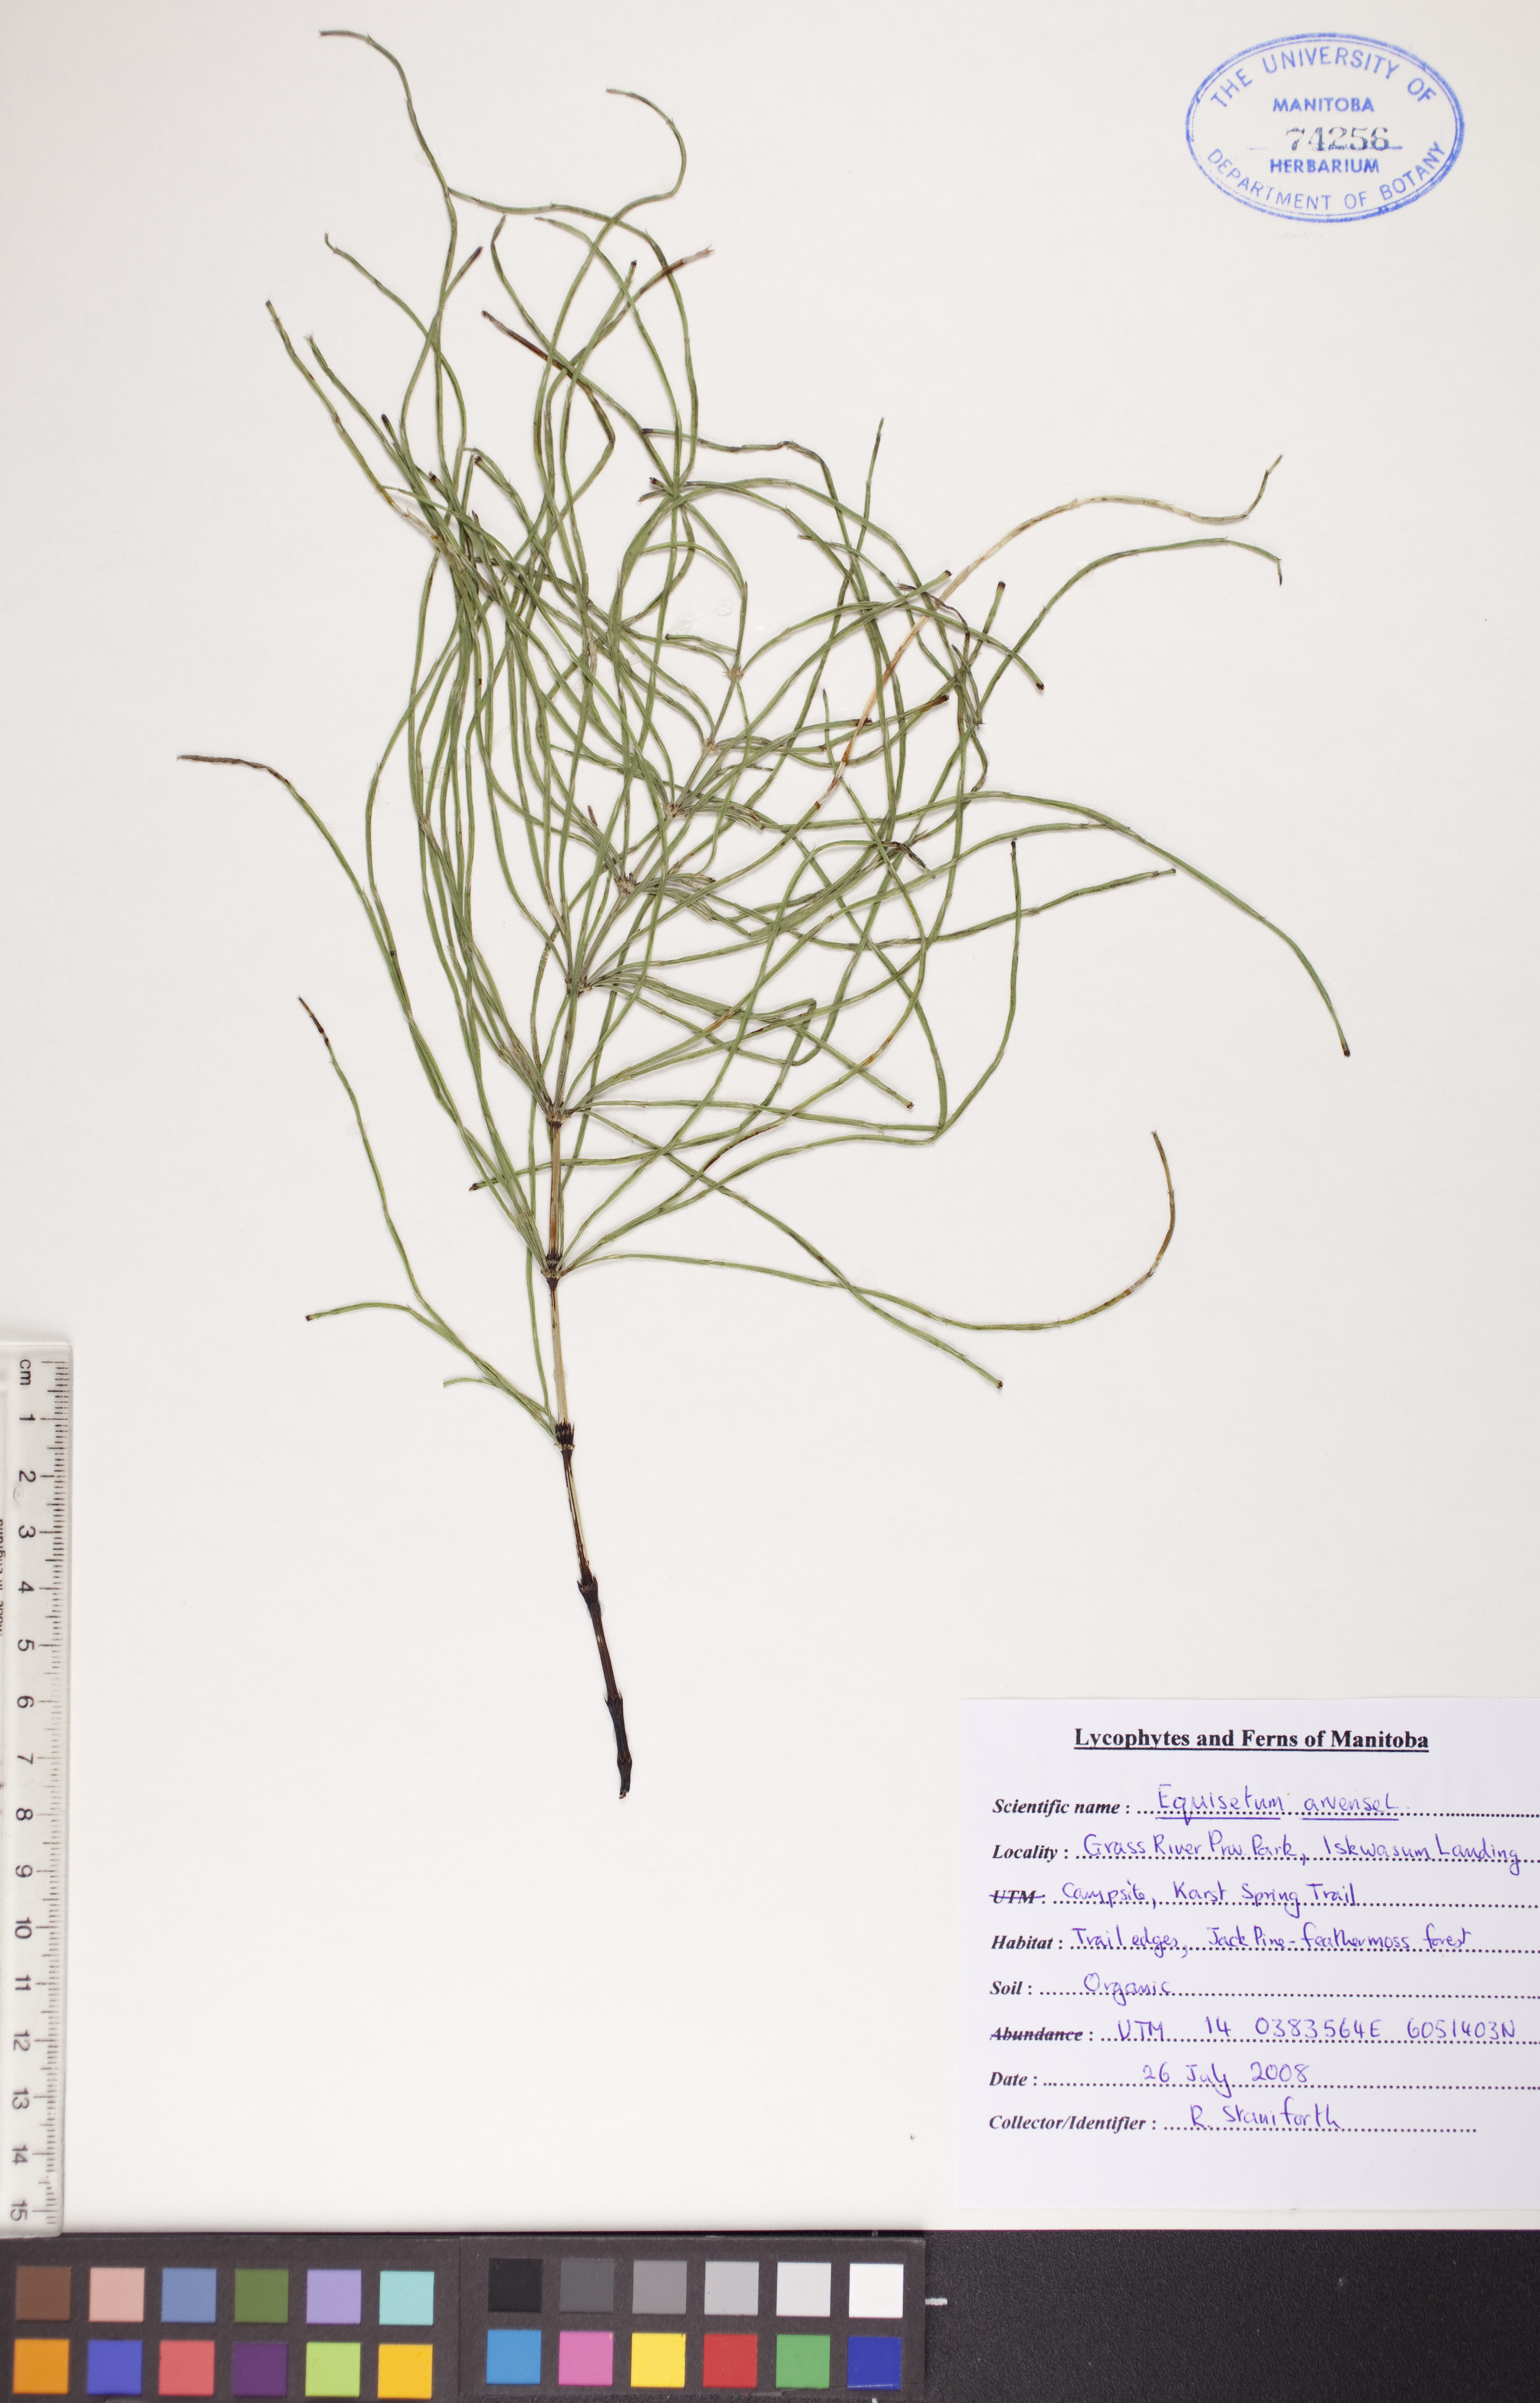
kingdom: Plantae
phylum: Tracheophyta
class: Polypodiopsida
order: Equisetales
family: Equisetaceae
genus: Equisetum
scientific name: Equisetum arvense
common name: Field horsetail
